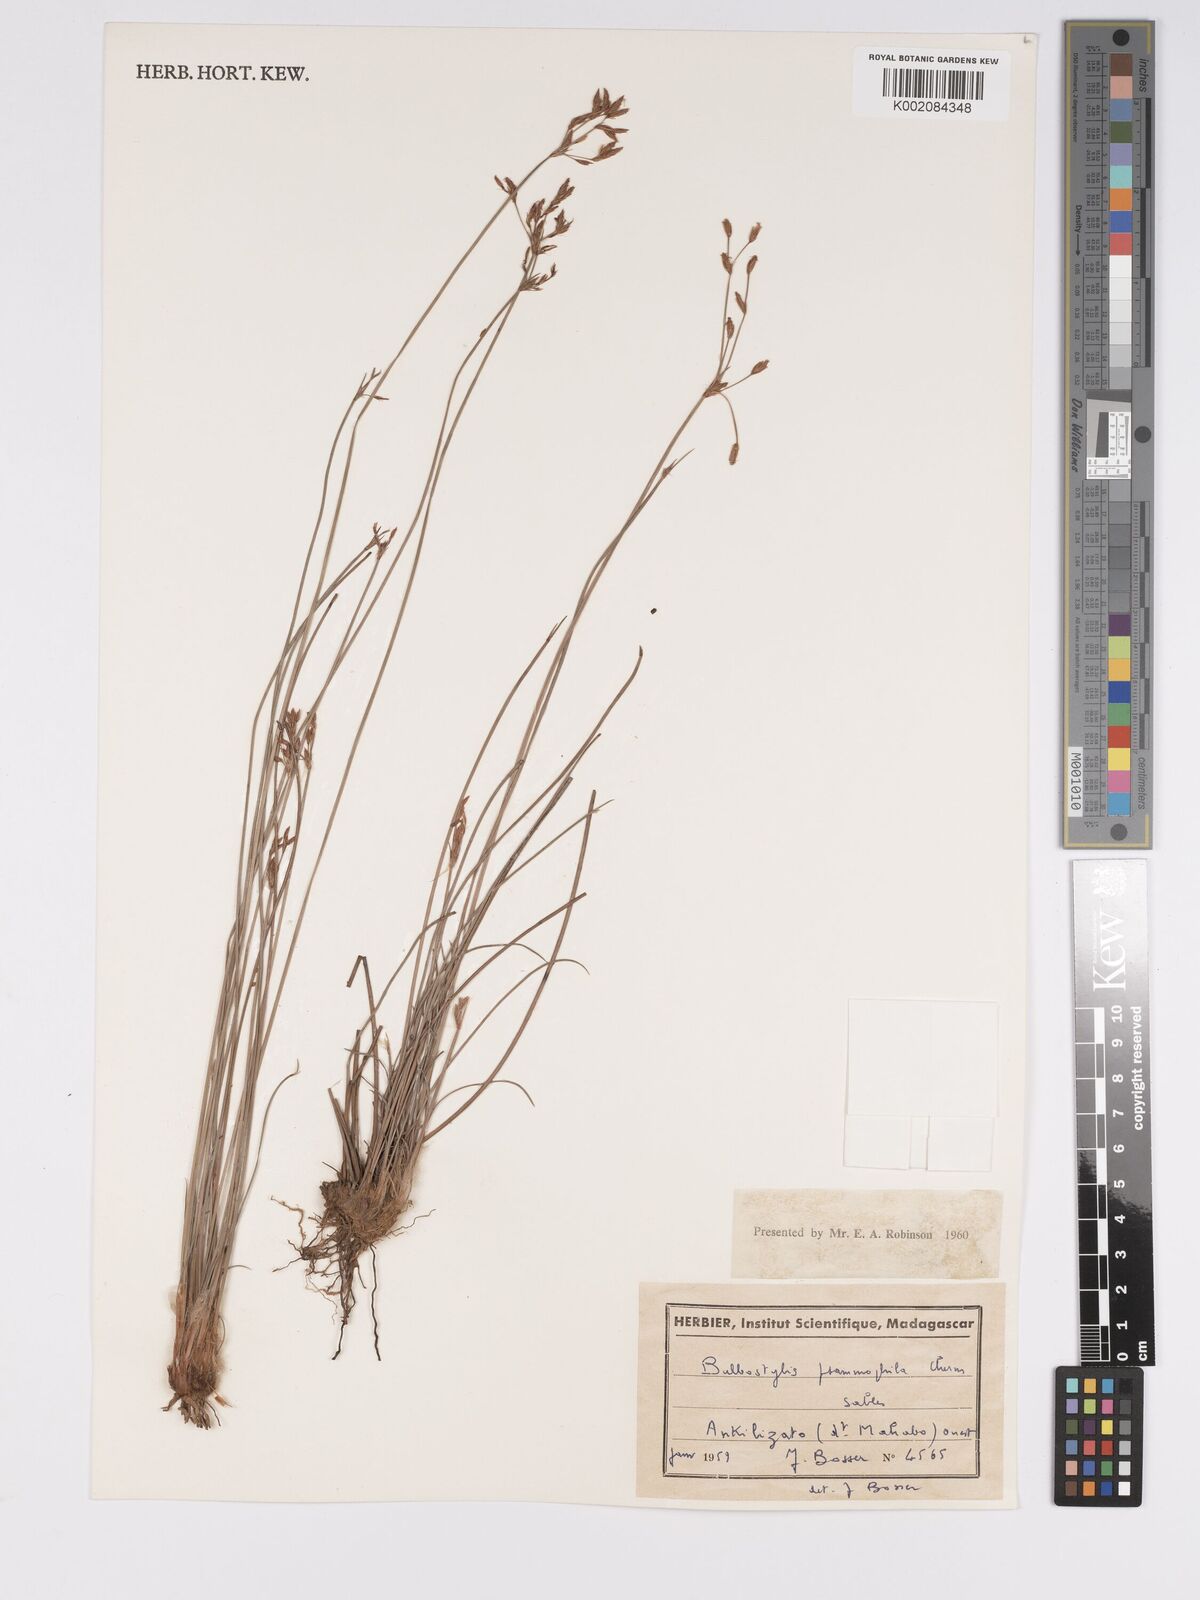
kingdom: Plantae
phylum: Tracheophyta
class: Liliopsida
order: Poales
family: Cyperaceae
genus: Bulbostylis
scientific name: Bulbostylis psammophila
